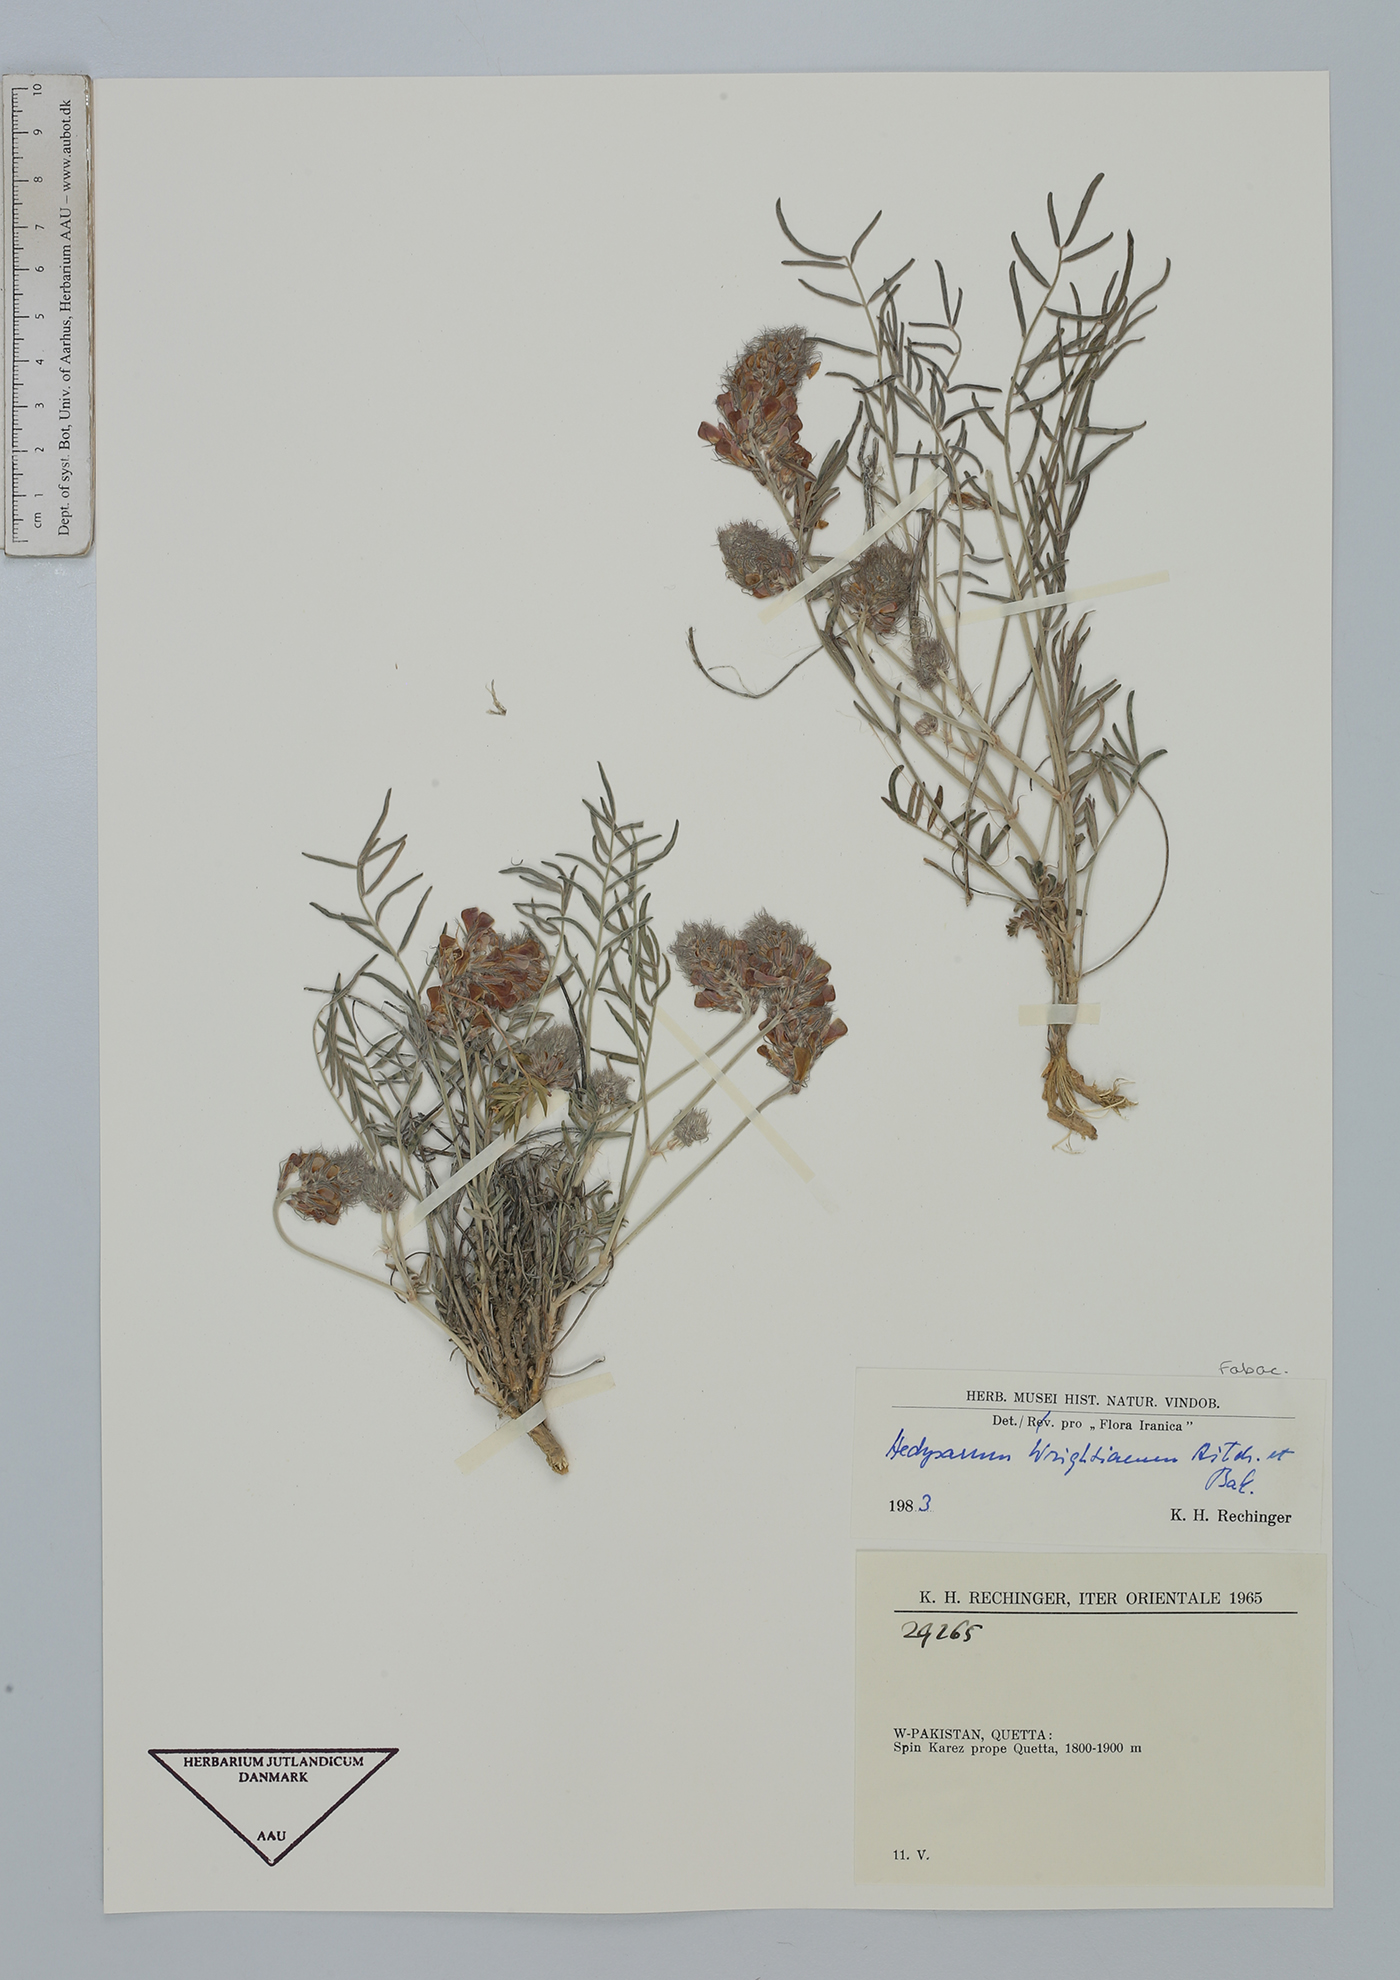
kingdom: Plantae
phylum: Tracheophyta
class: Magnoliopsida
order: Fabales
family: Fabaceae
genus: Hedysarum
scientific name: Hedysarum micropterum
